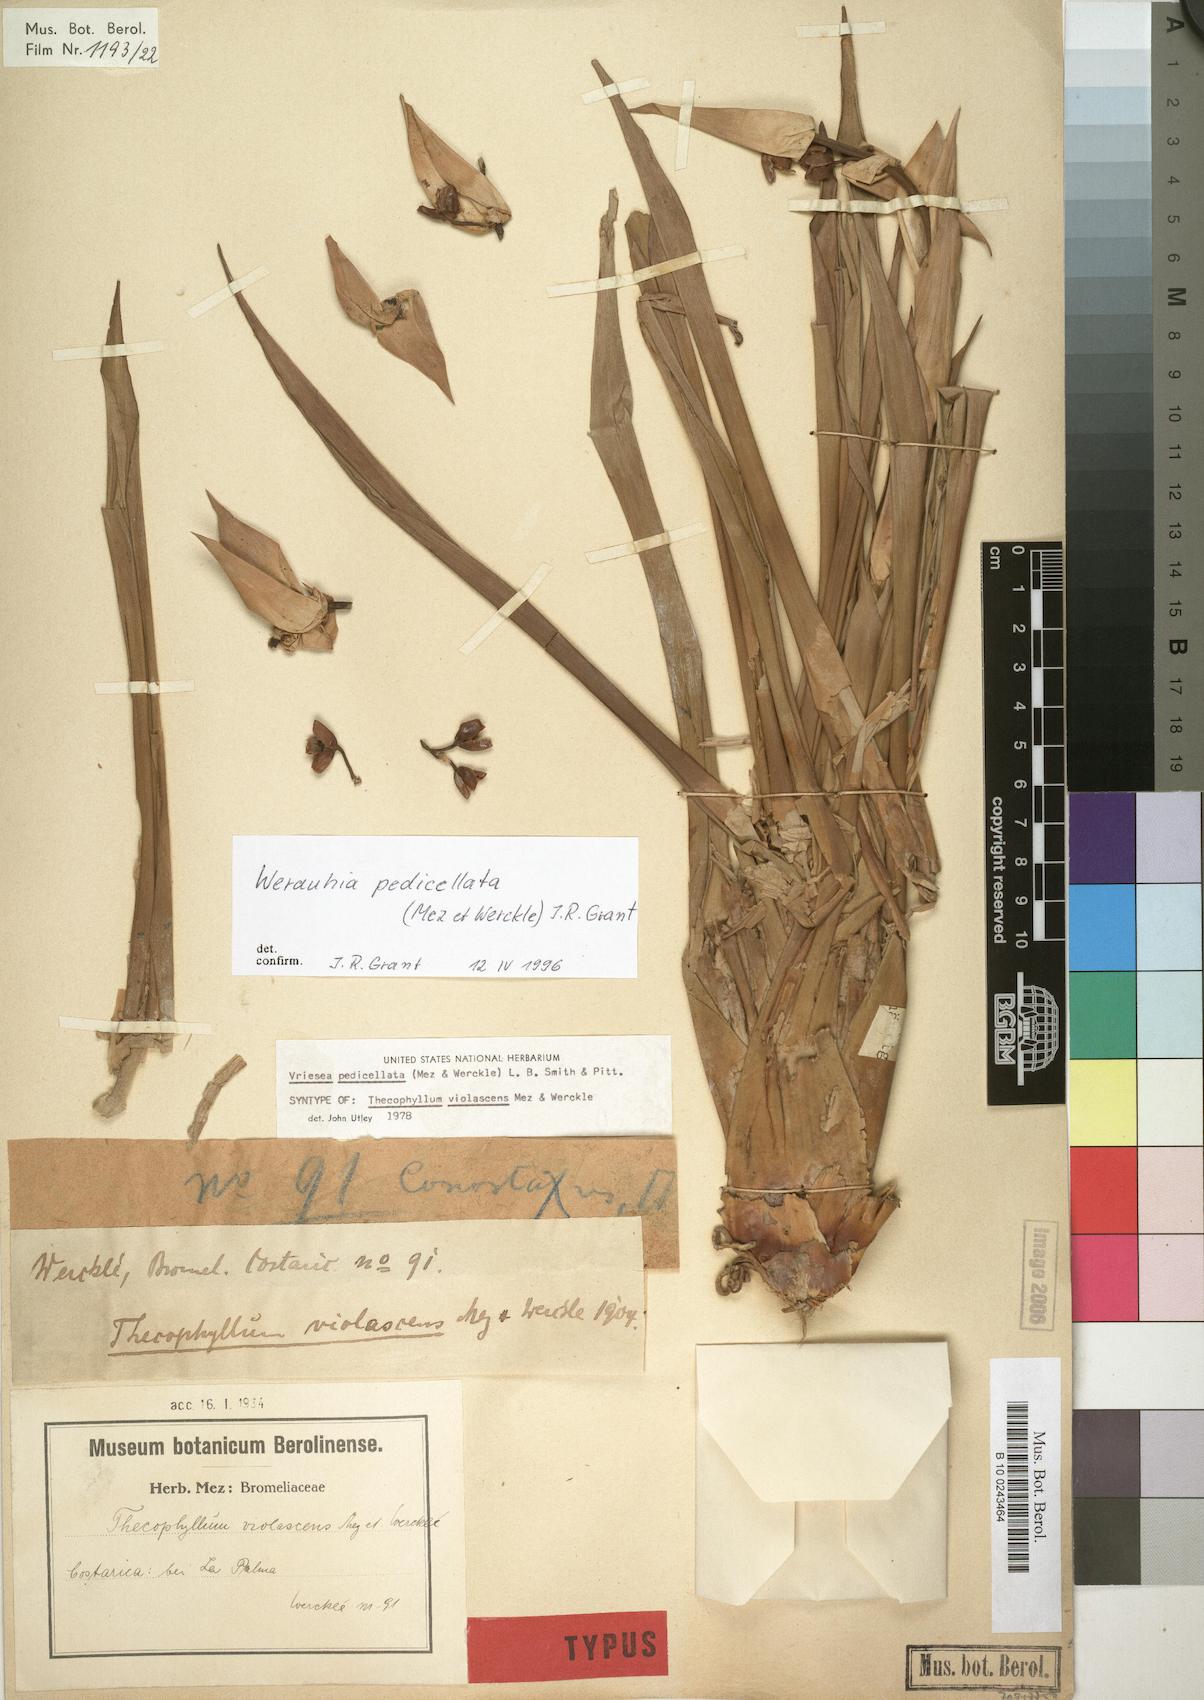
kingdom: Plantae
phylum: Tracheophyta
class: Liliopsida
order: Poales
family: Bromeliaceae
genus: Werauhia
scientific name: Werauhia pedicellata
